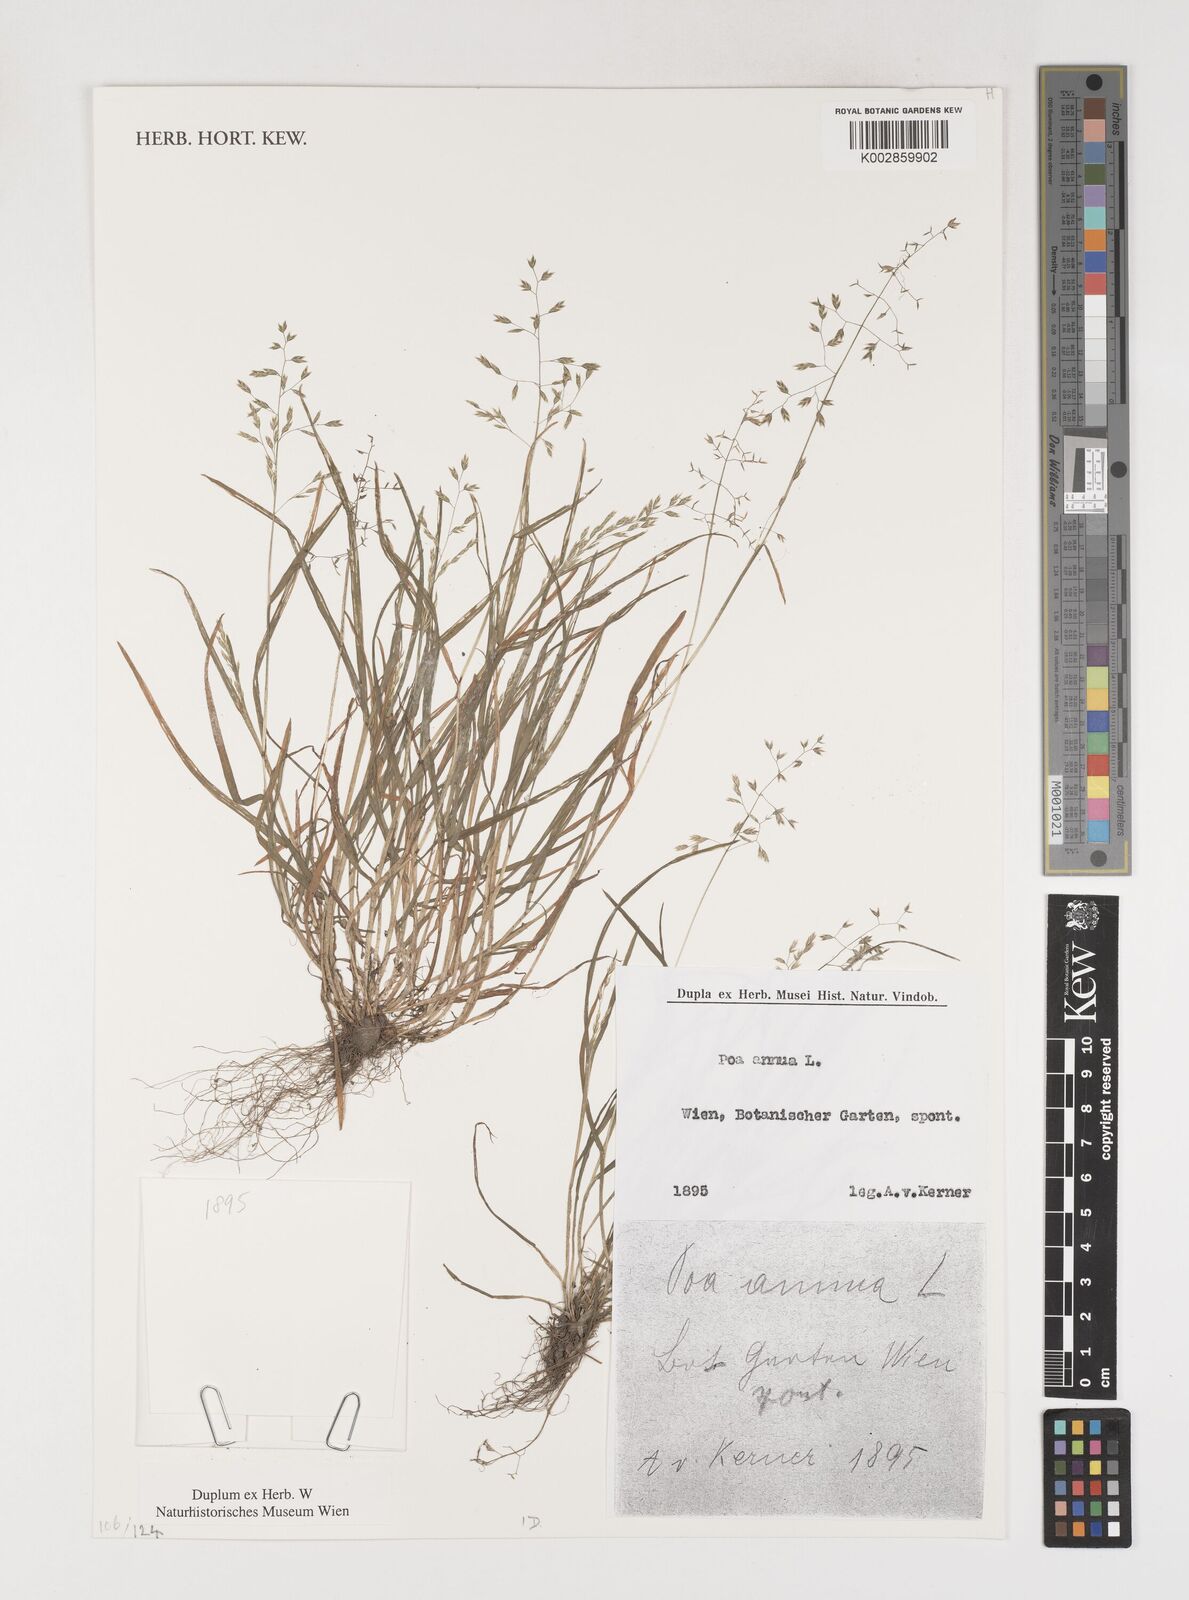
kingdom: Plantae
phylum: Tracheophyta
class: Liliopsida
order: Poales
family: Poaceae
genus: Poa
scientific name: Poa annua
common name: Annual bluegrass
